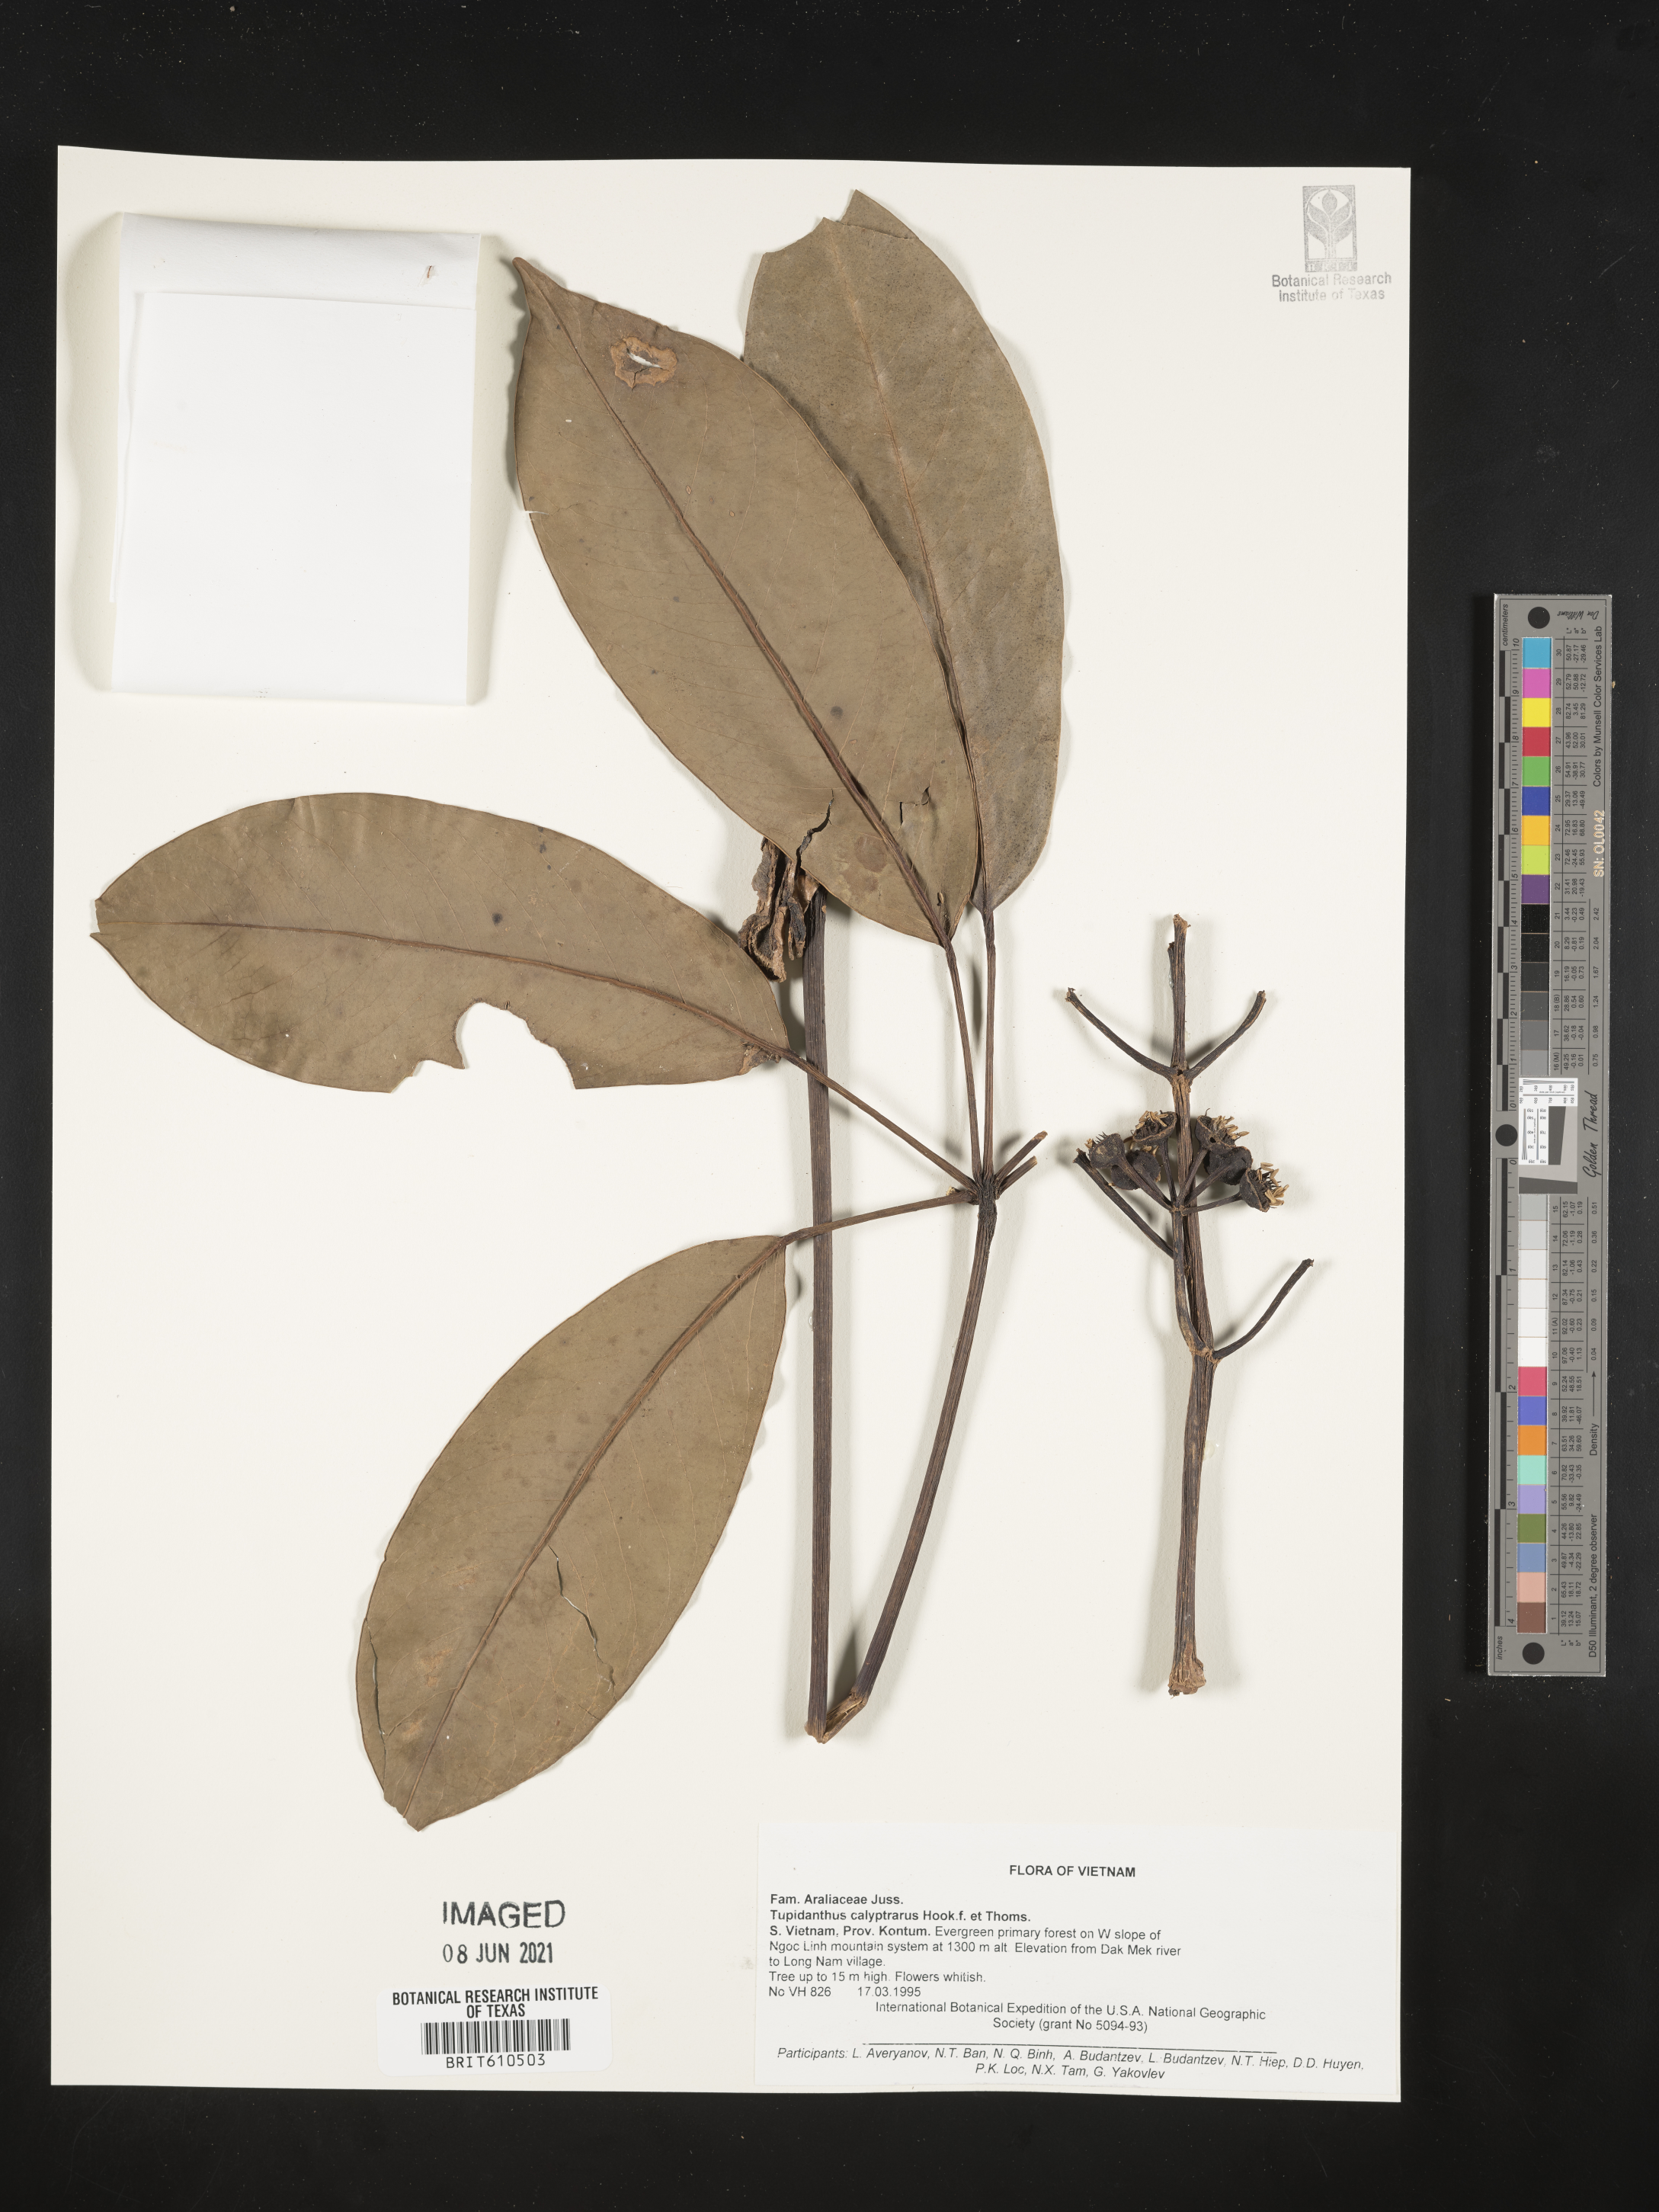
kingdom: Plantae
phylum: Tracheophyta
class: Magnoliopsida
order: Apiales
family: Araliaceae
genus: Heptapleurum
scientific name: Heptapleurum calyptratum
